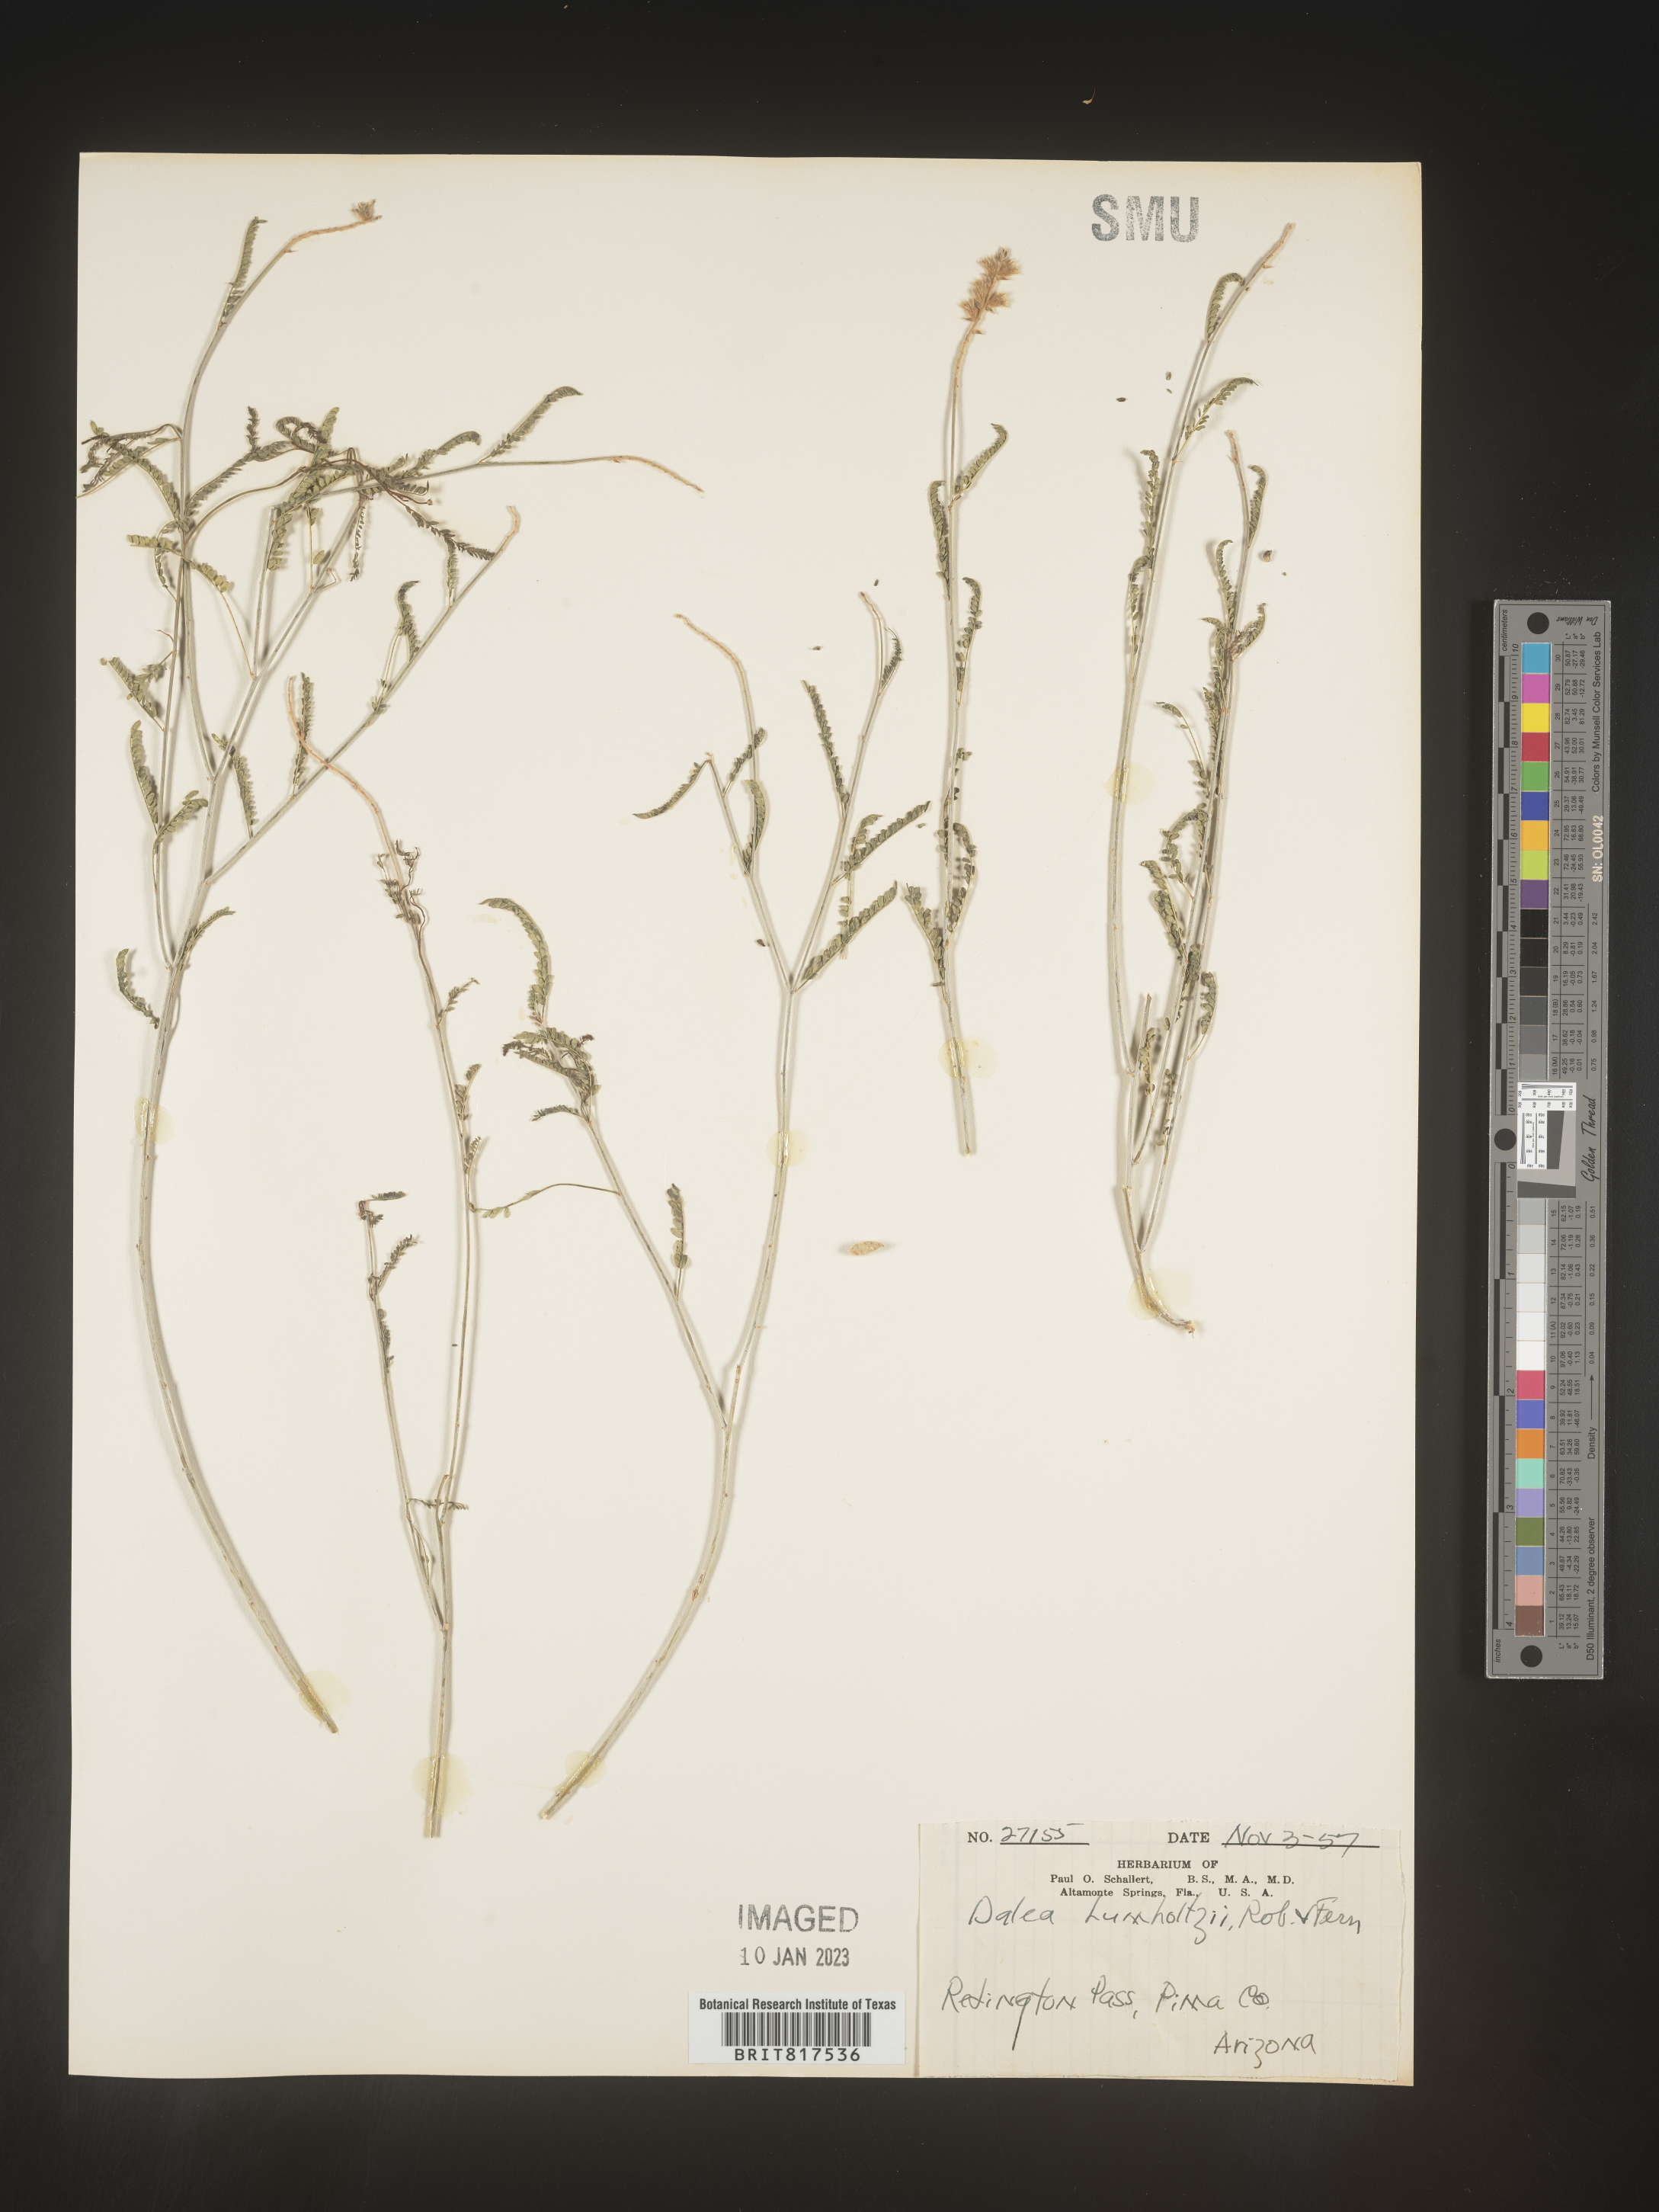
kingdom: Plantae
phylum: Tracheophyta
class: Magnoliopsida
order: Fabales
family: Fabaceae
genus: Dalea
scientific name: Dalea leporina
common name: Foxtail dalea
